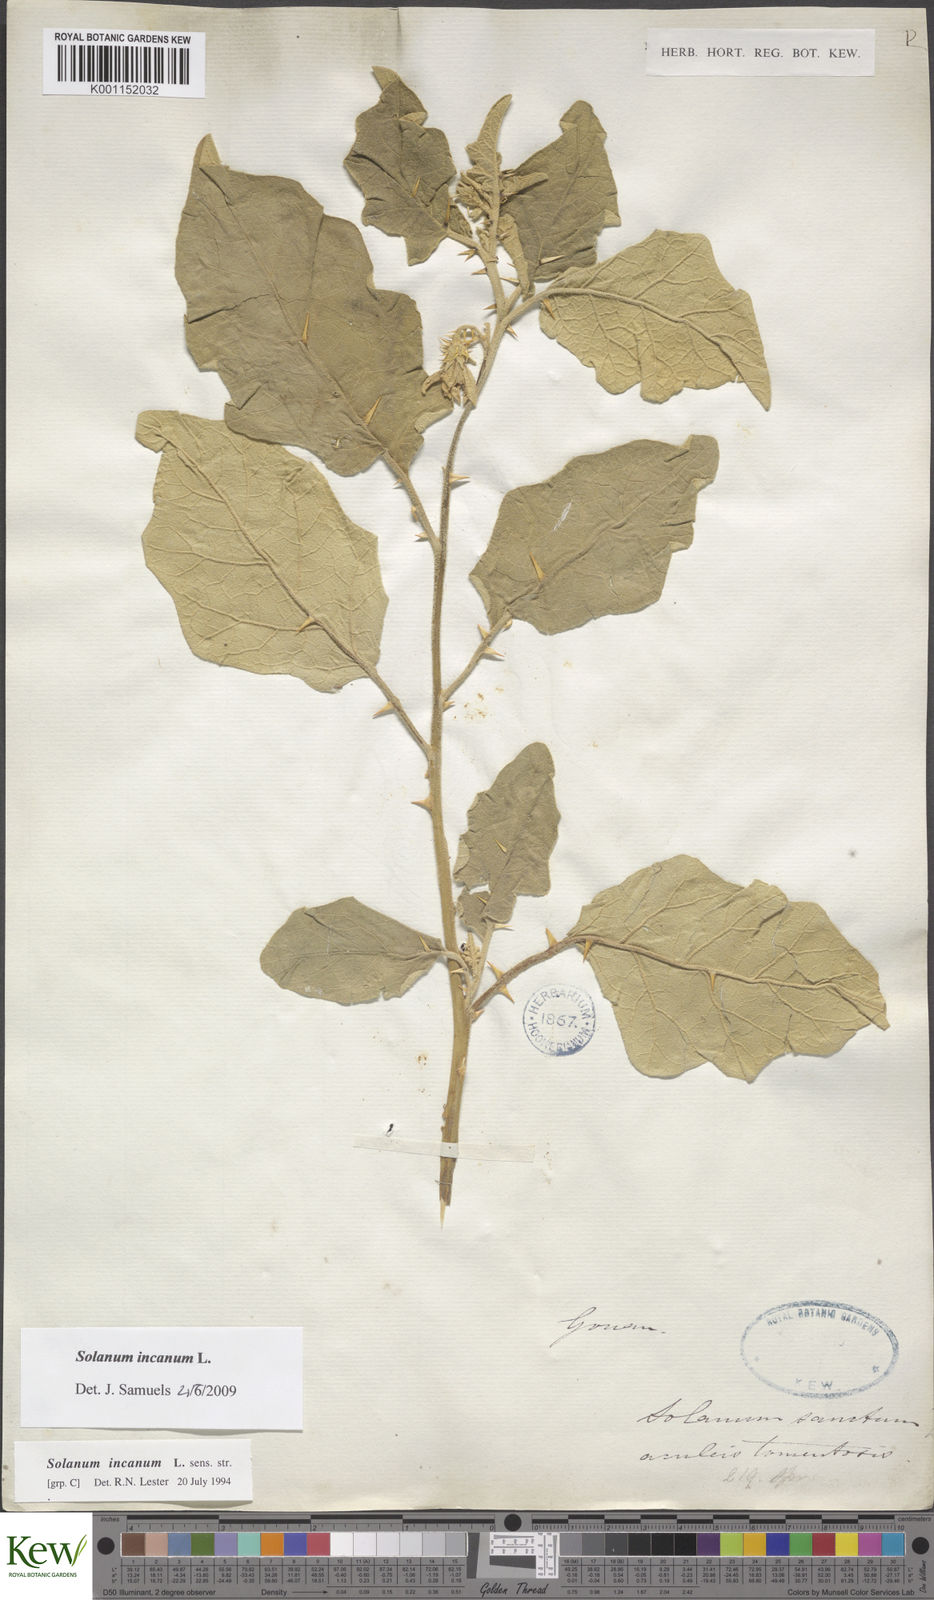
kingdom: Plantae
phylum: Tracheophyta
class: Magnoliopsida
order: Solanales
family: Solanaceae
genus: Solanum
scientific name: Solanum incanum
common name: Bitter apple
